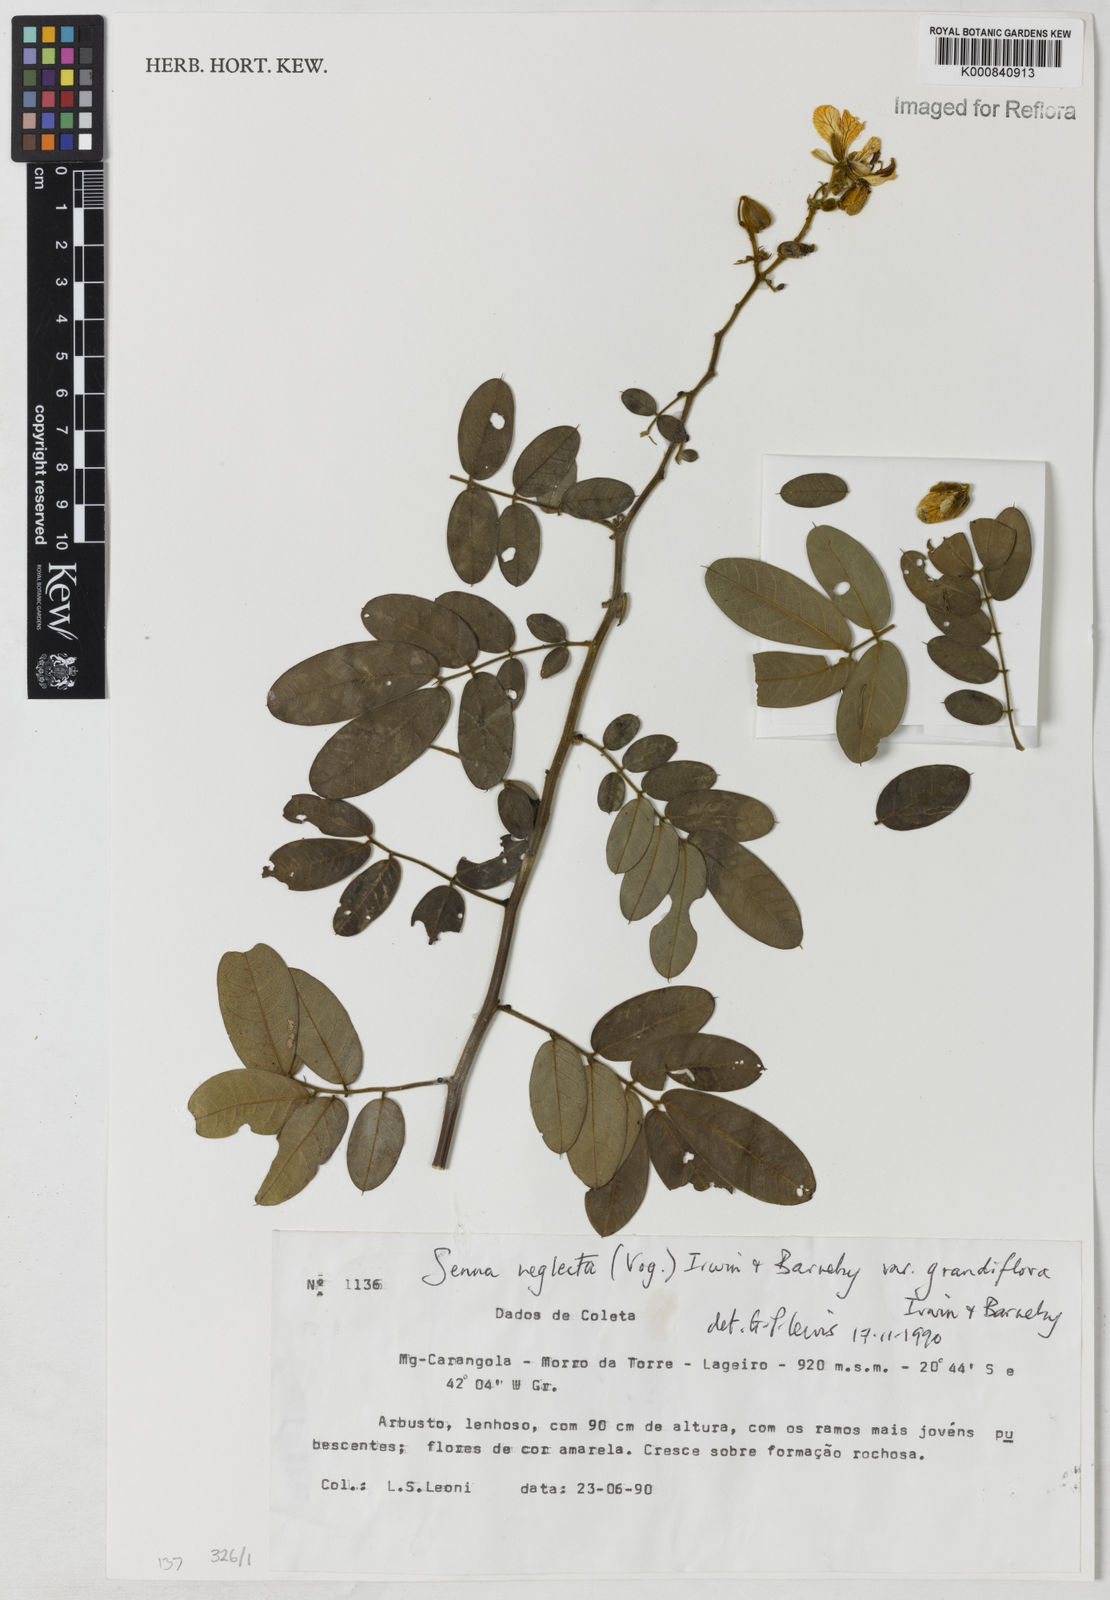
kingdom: Plantae
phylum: Tracheophyta
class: Magnoliopsida
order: Fabales
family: Fabaceae
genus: Senna
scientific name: Senna neglecta
